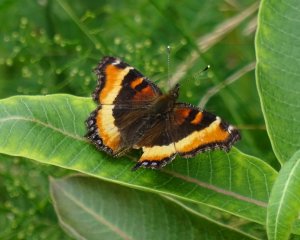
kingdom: Animalia
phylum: Arthropoda
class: Insecta
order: Lepidoptera
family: Nymphalidae
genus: Aglais
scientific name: Aglais milberti
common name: Milbert's Tortoiseshell
